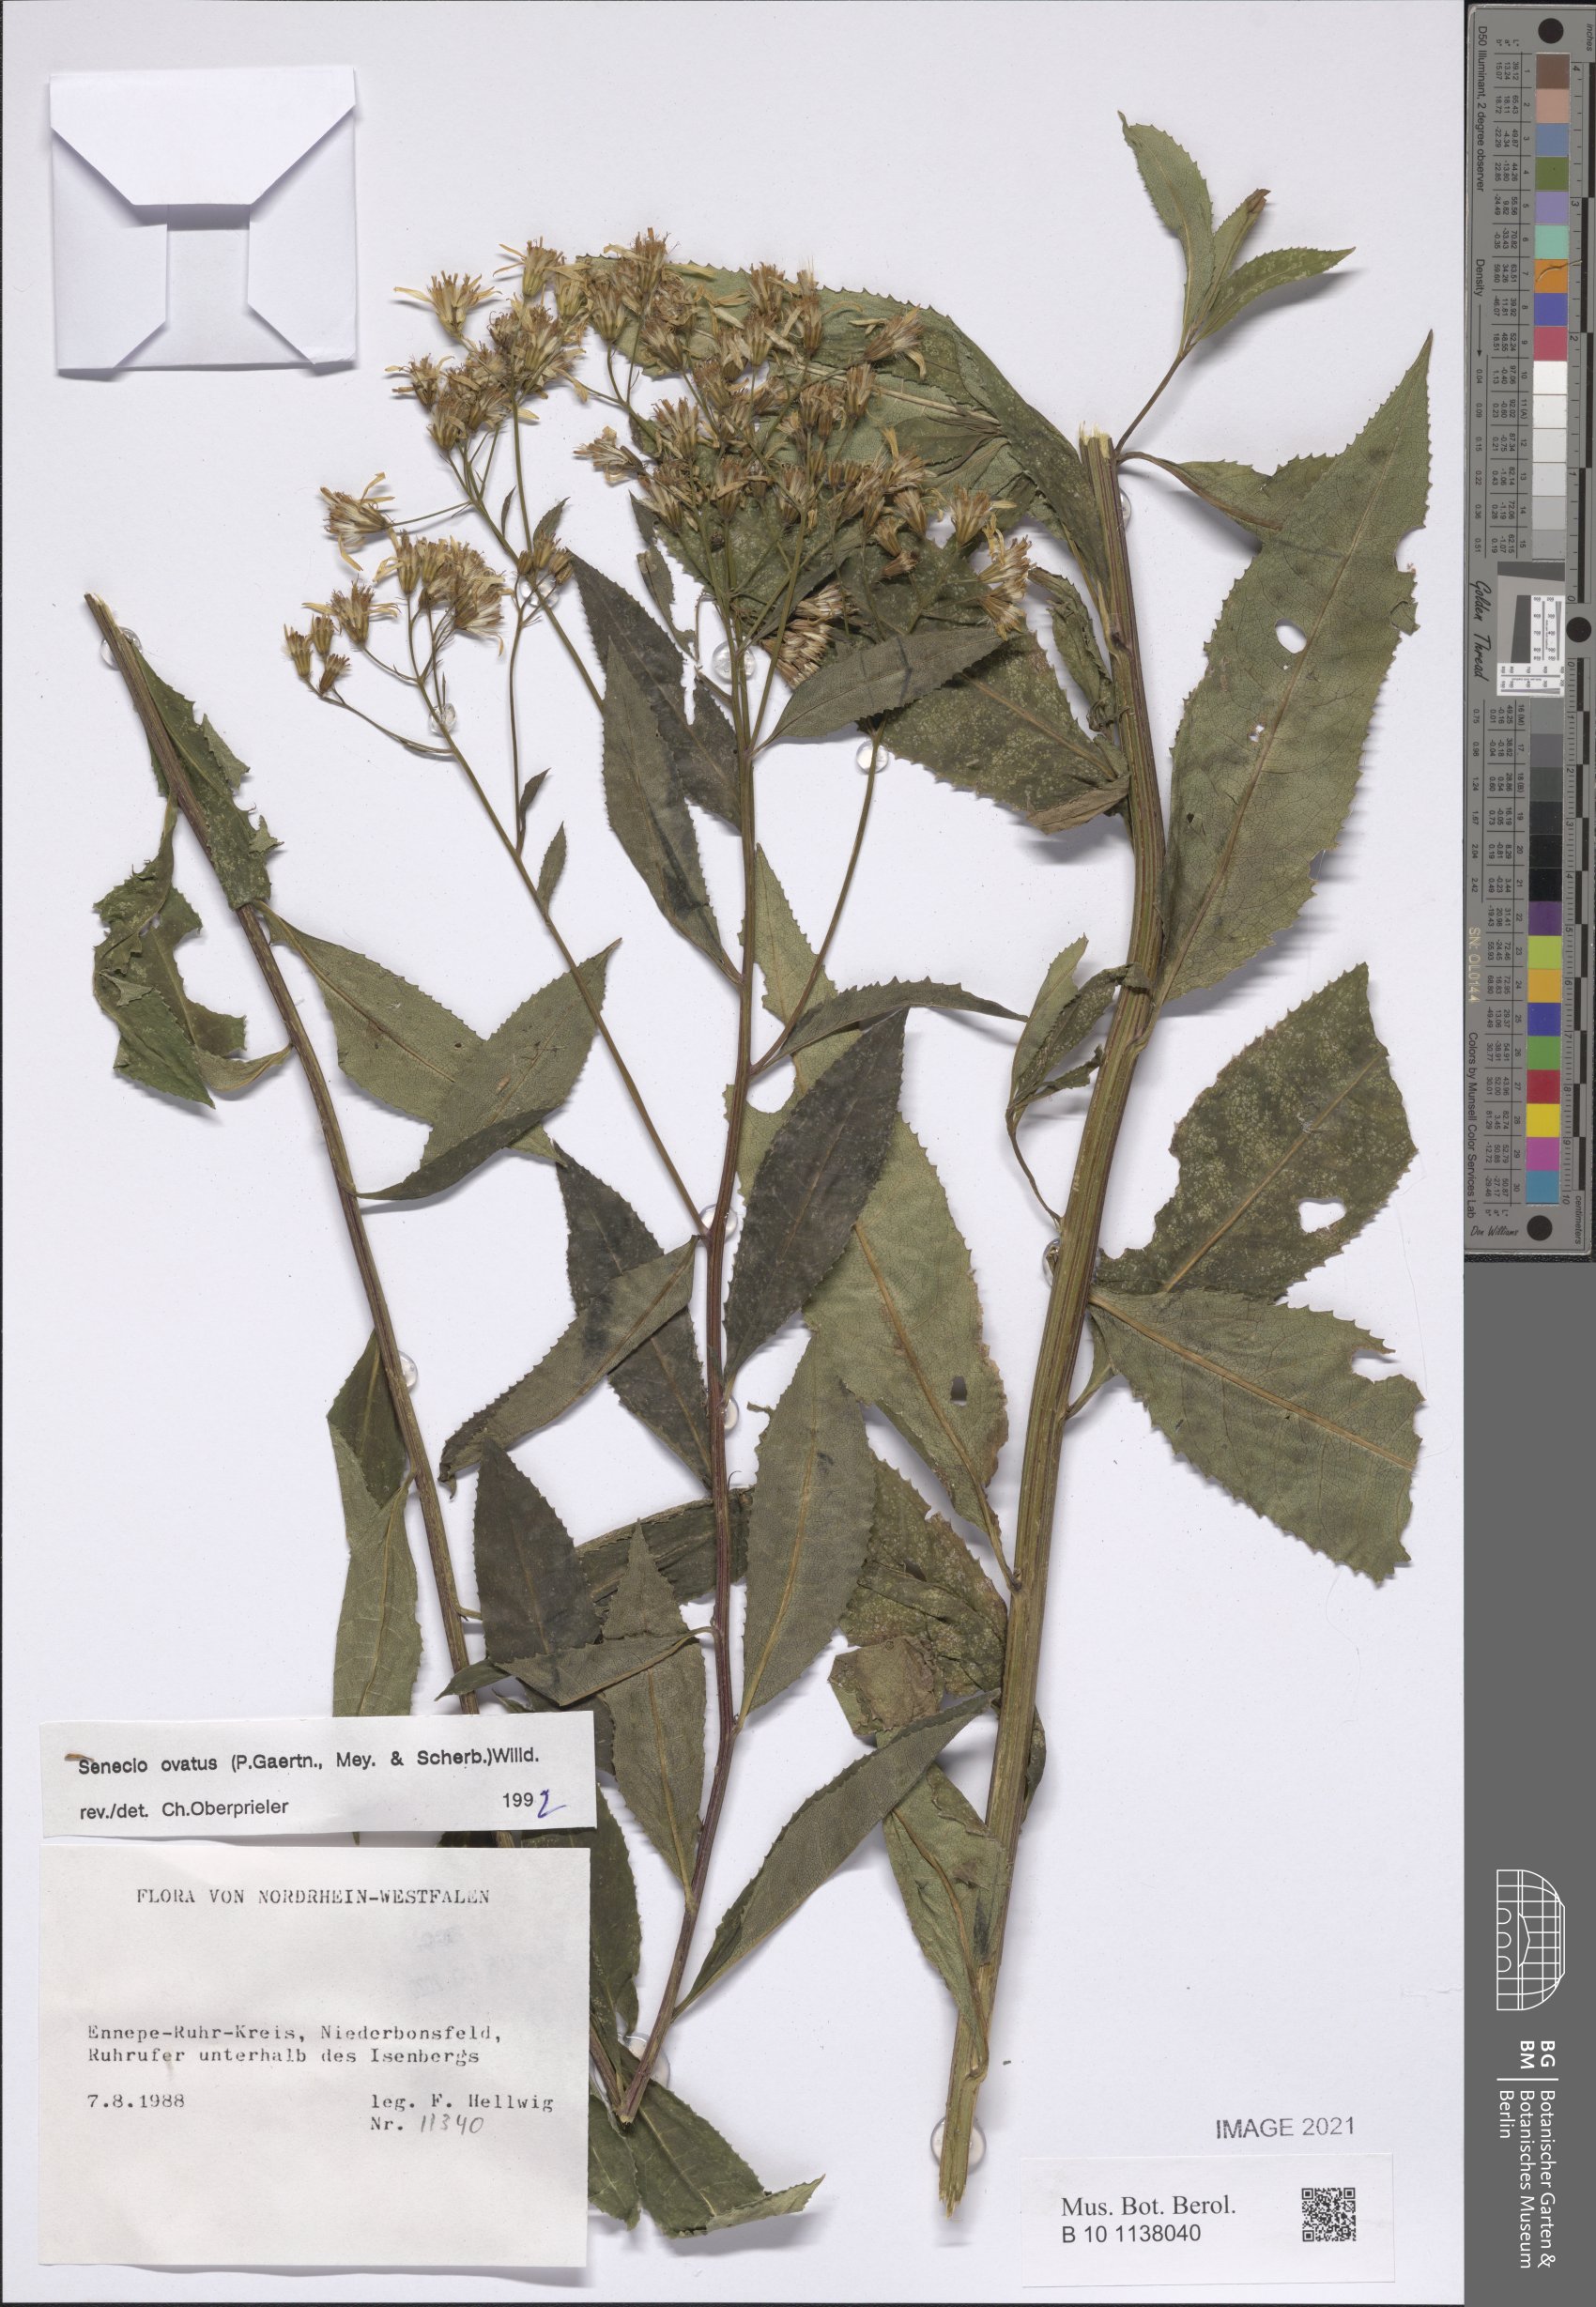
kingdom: Plantae
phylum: Tracheophyta
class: Magnoliopsida
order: Asterales
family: Asteraceae
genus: Senecio
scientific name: Senecio ovatus
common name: Wood ragwort
